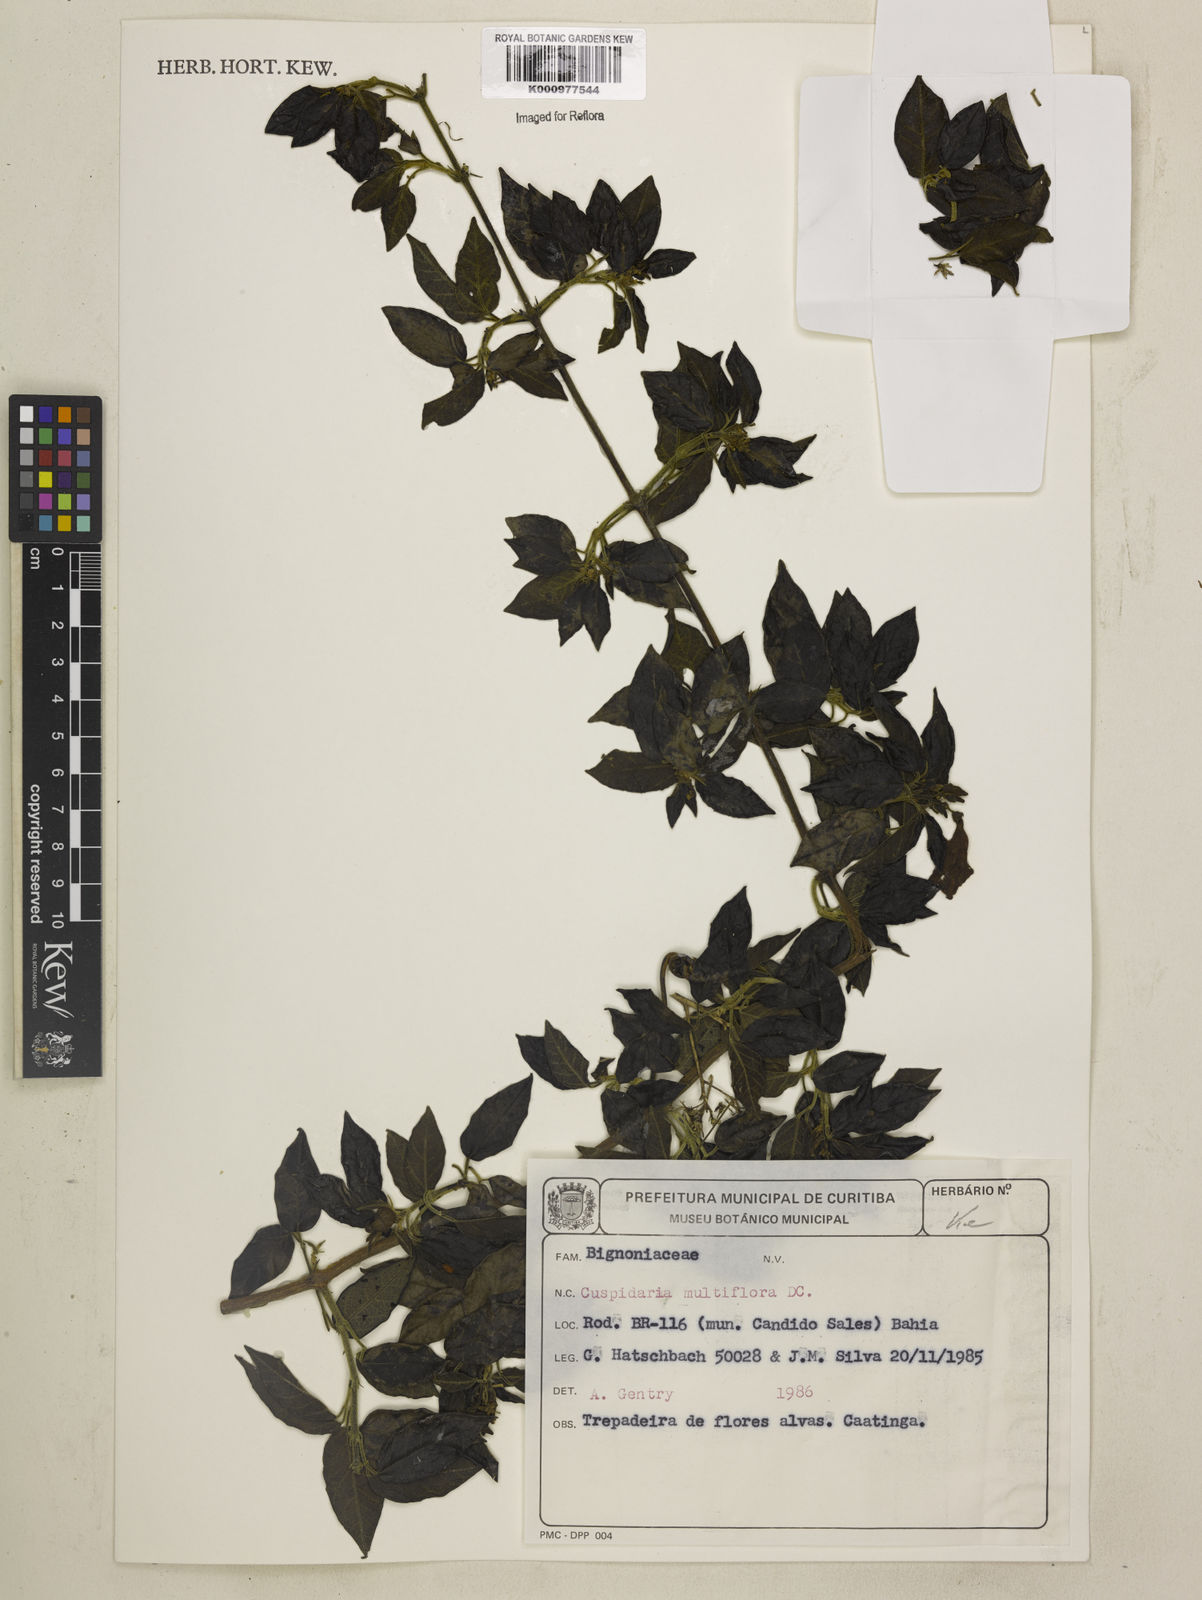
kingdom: Plantae
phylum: Tracheophyta
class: Magnoliopsida
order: Lamiales
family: Bignoniaceae
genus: Cuspidaria
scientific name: Cuspidaria multiflora
